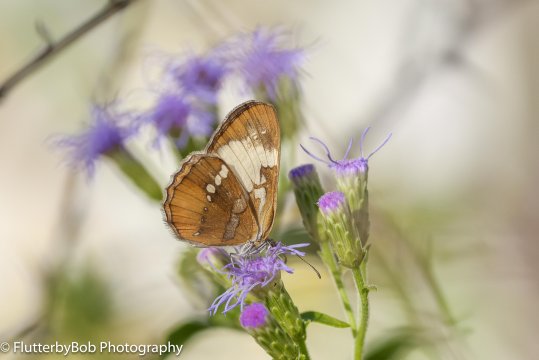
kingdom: Animalia
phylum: Arthropoda
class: Insecta
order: Lepidoptera
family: Nymphalidae
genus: Mestra
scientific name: Mestra amymone
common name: Common Mestra
